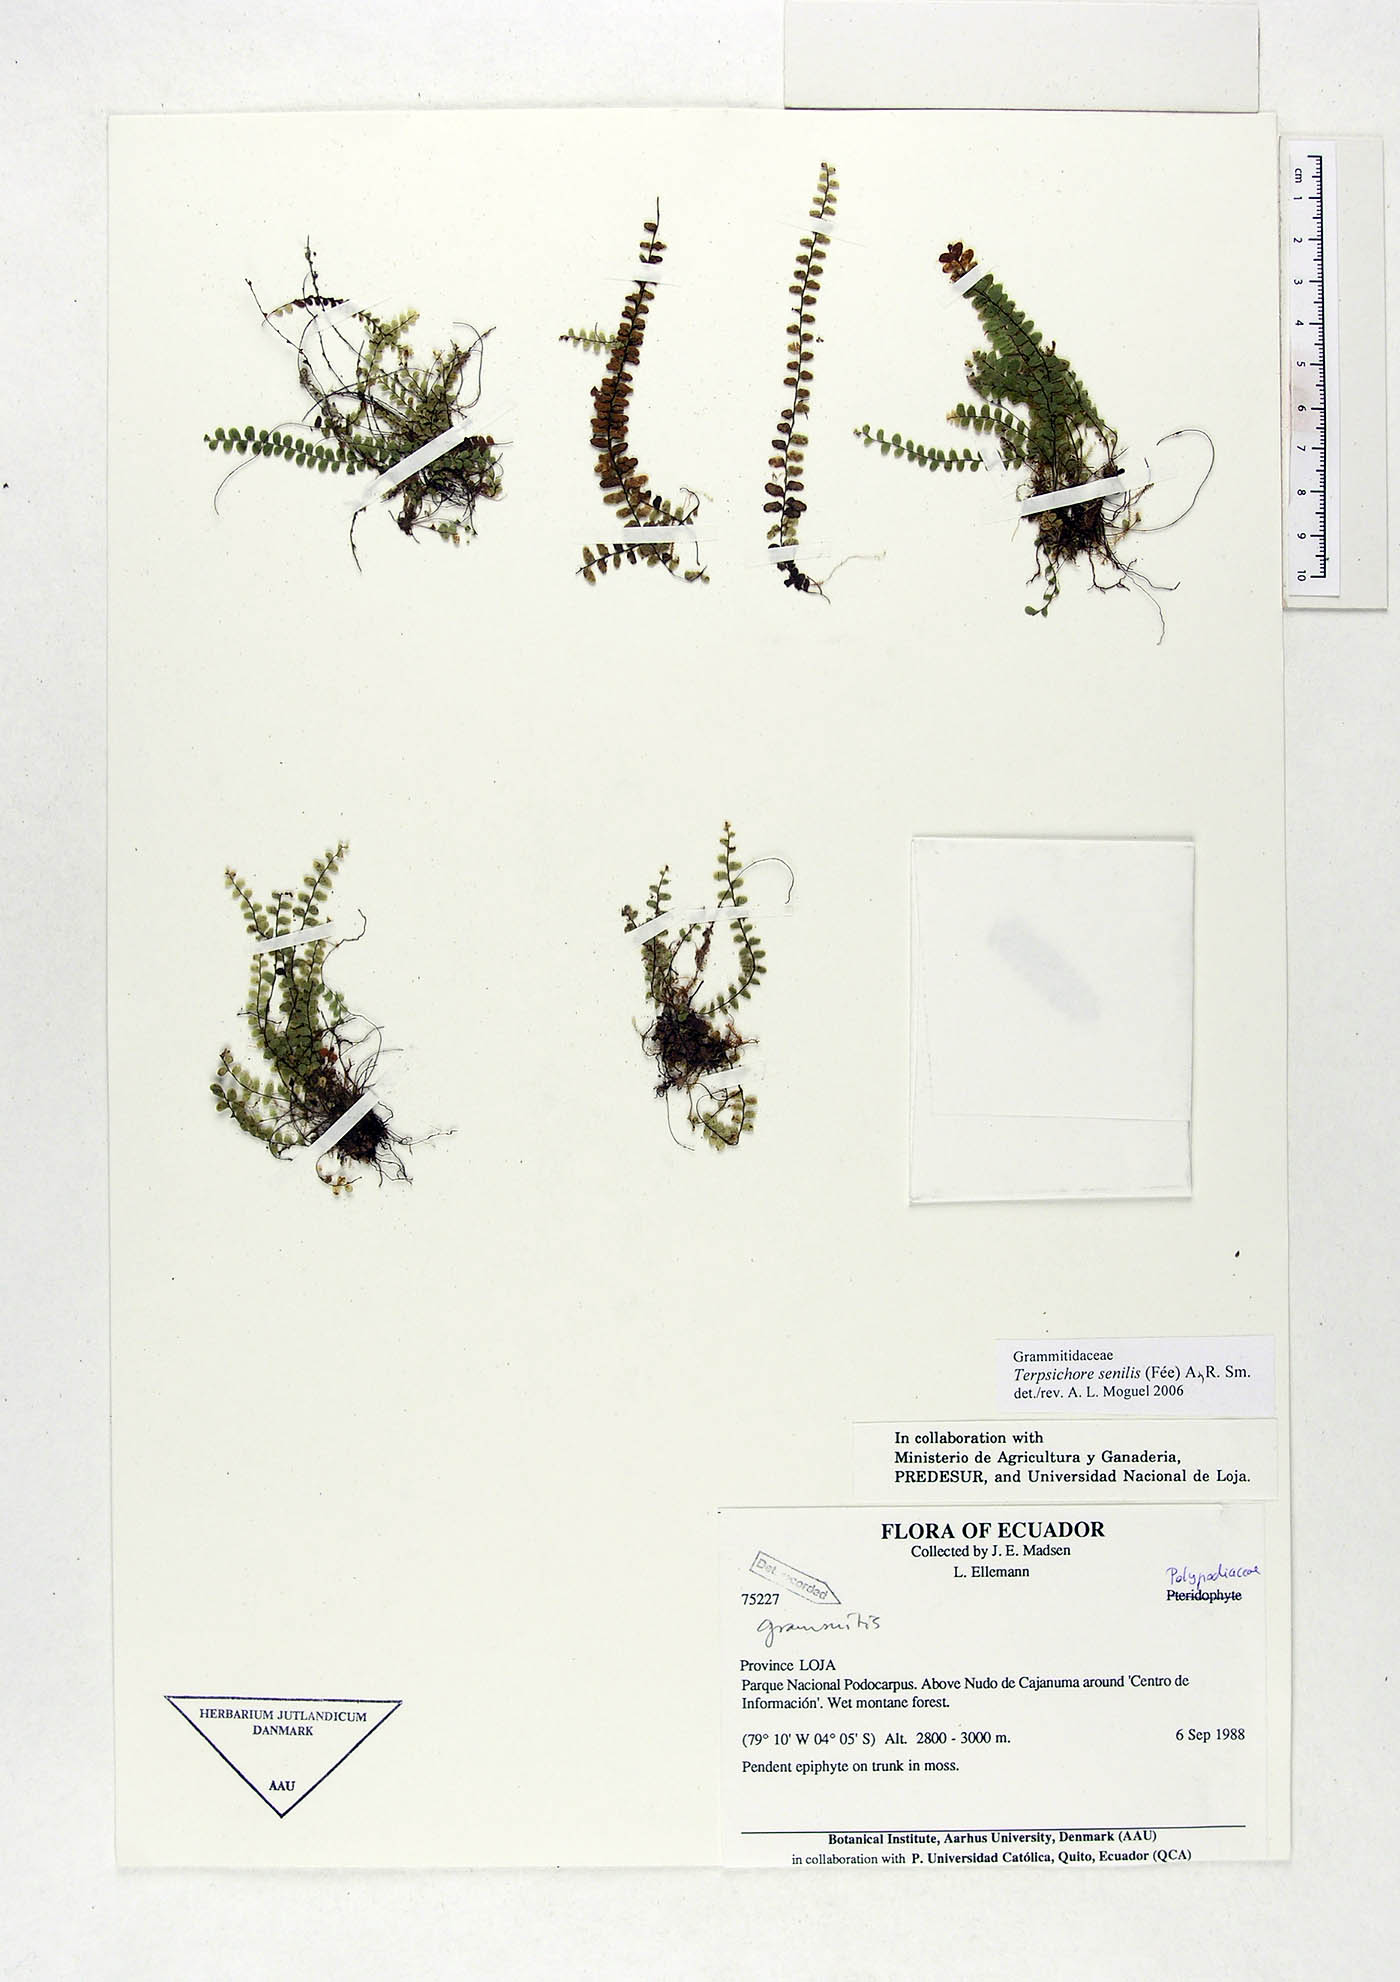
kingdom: Plantae
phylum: Tracheophyta
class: Polypodiopsida
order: Polypodiales
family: Polypodiaceae
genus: Alansmia
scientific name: Alansmia senilis
